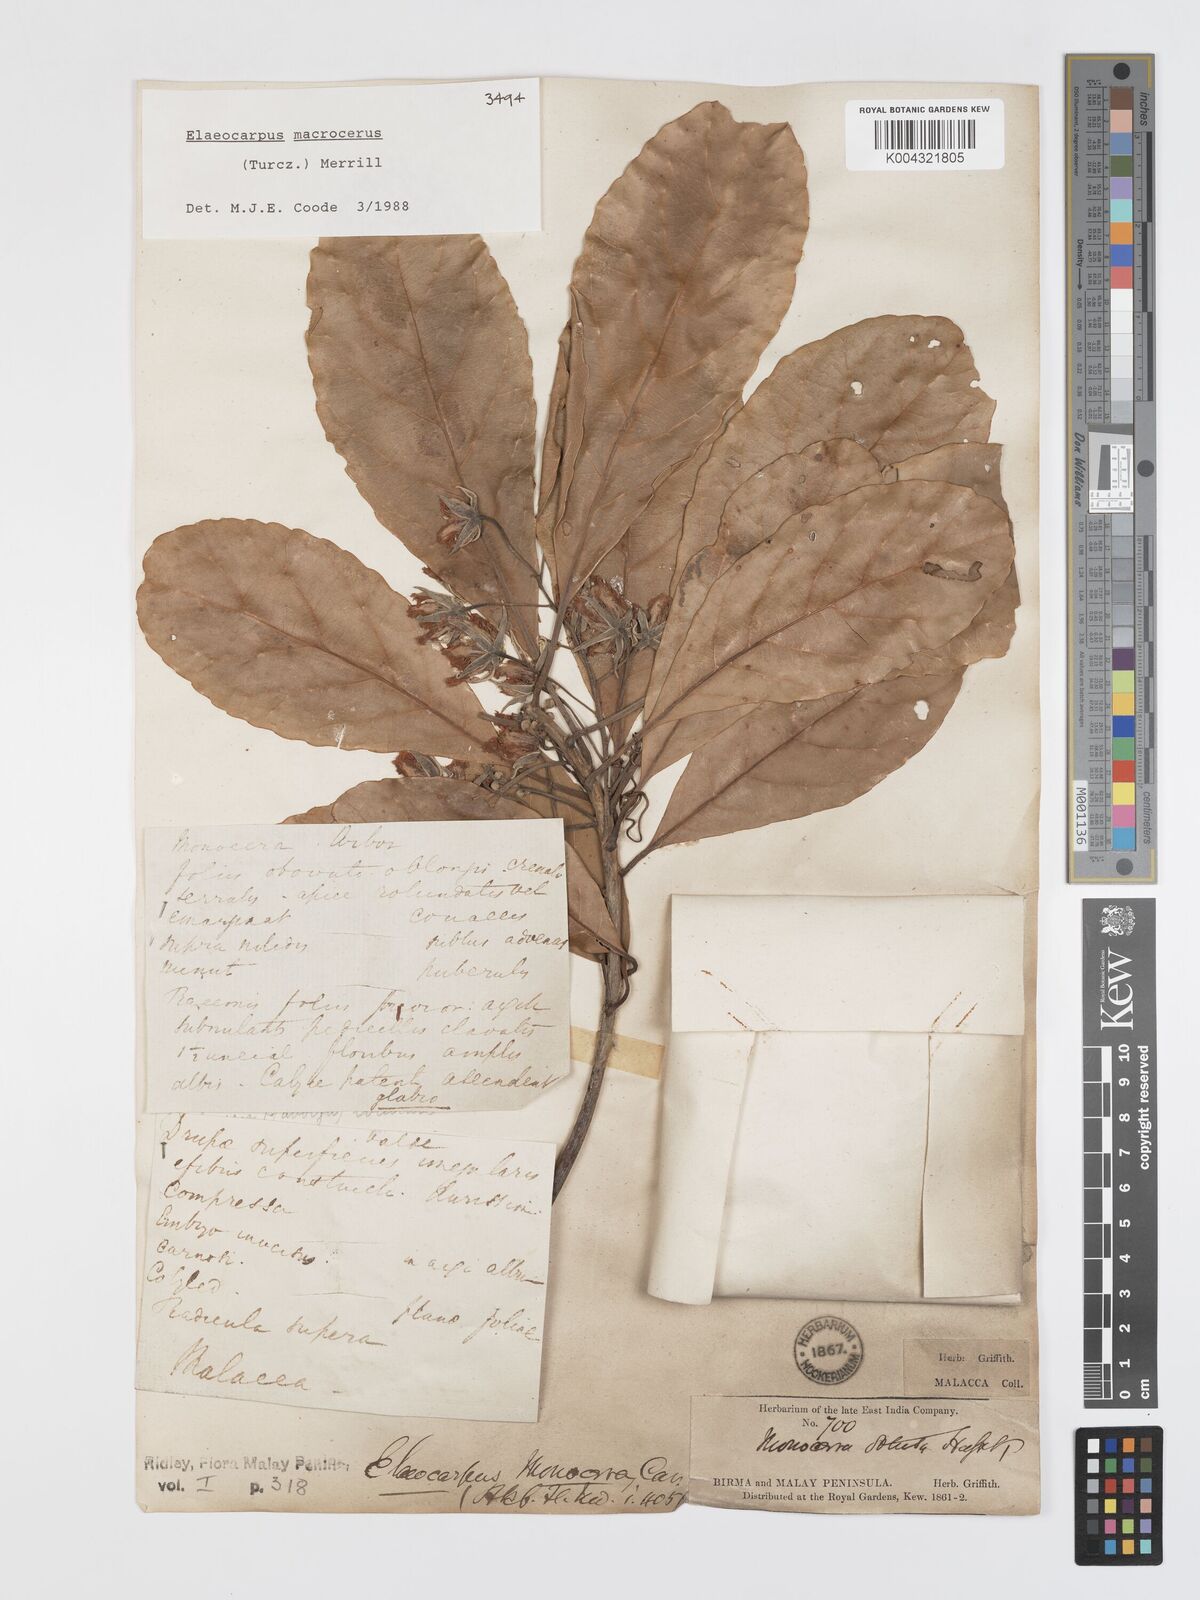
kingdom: Plantae
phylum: Tracheophyta
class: Magnoliopsida
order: Oxalidales
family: Elaeocarpaceae
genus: Elaeocarpus
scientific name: Elaeocarpus macrocerus
